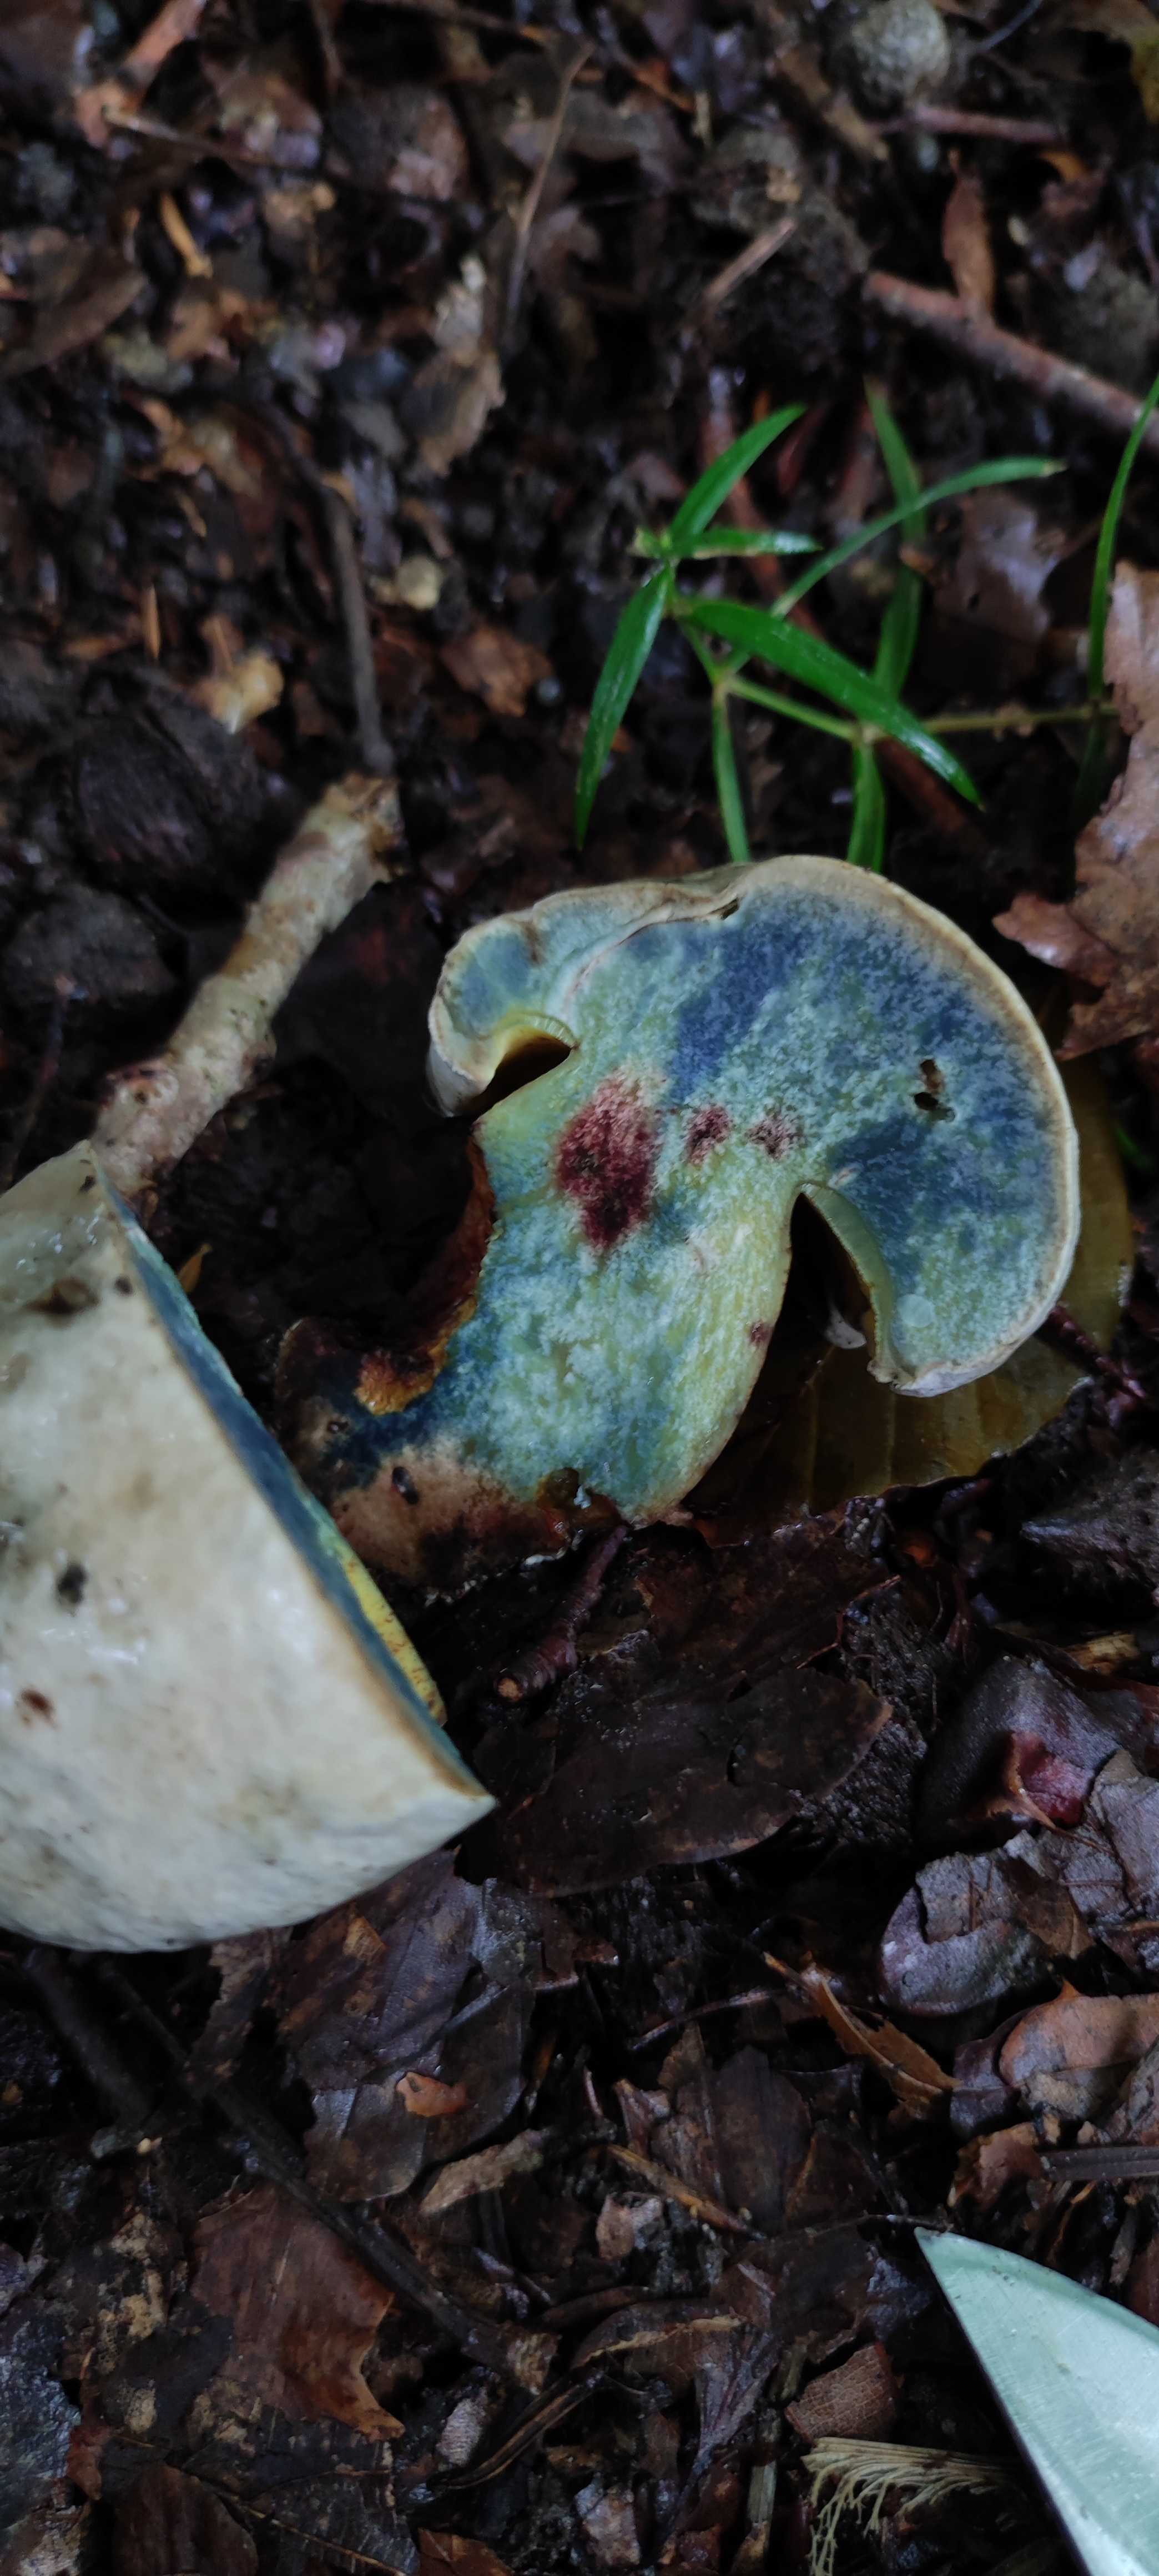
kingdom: Fungi
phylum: Basidiomycota
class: Agaricomycetes
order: Boletales
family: Boletaceae
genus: Caloboletus
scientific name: Caloboletus radicans
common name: rod-rørhat
